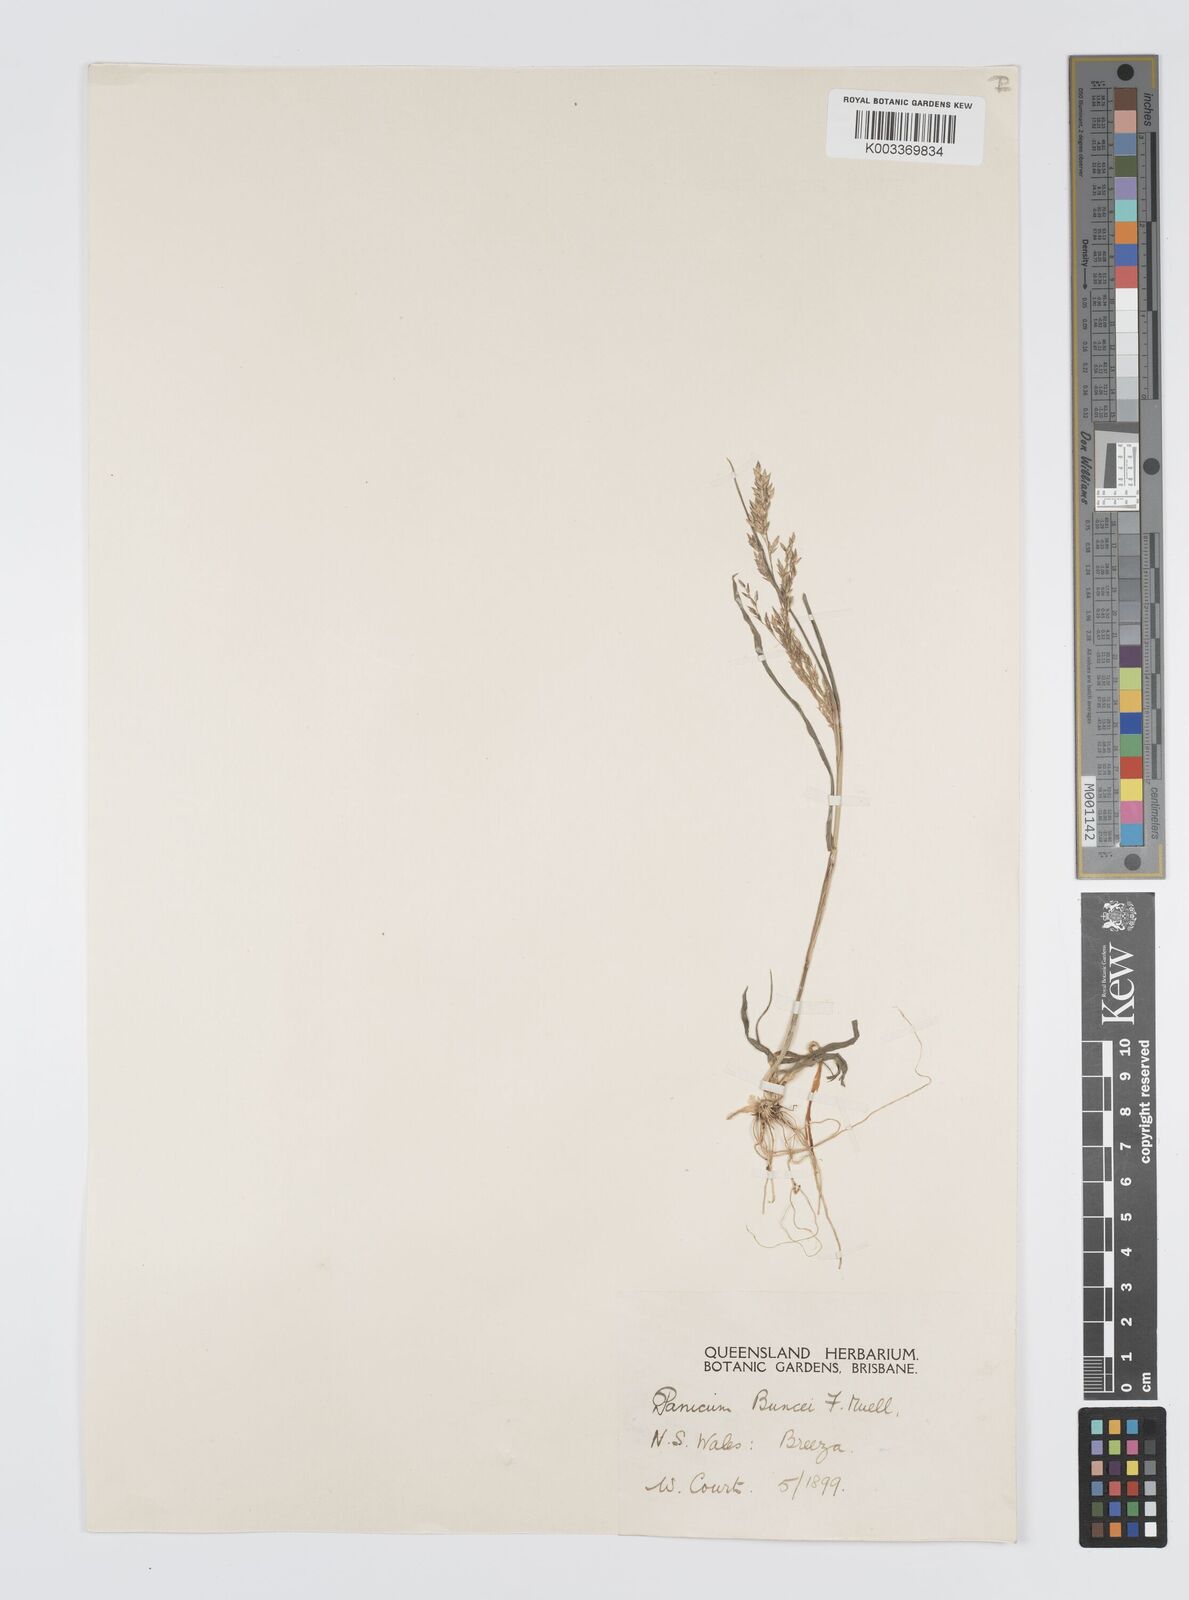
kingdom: Plantae
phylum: Tracheophyta
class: Liliopsida
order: Poales
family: Poaceae
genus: Panicum
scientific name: Panicum buncei
